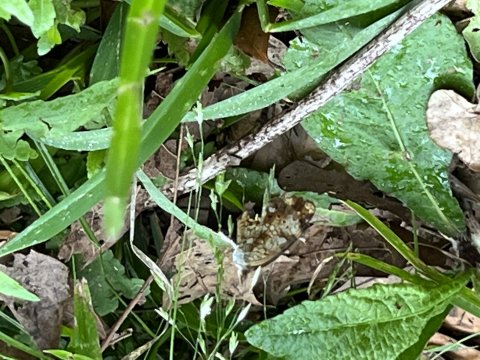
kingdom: Animalia
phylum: Arthropoda
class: Insecta
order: Lepidoptera
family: Nymphalidae
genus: Phyciodes
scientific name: Phyciodes phaon
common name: Phaon Crescent
